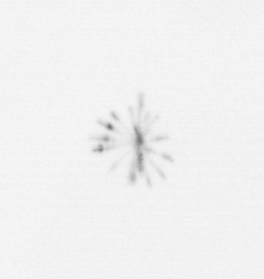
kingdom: Chromista
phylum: Ochrophyta
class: Bacillariophyceae
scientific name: Bacillariophyceae
